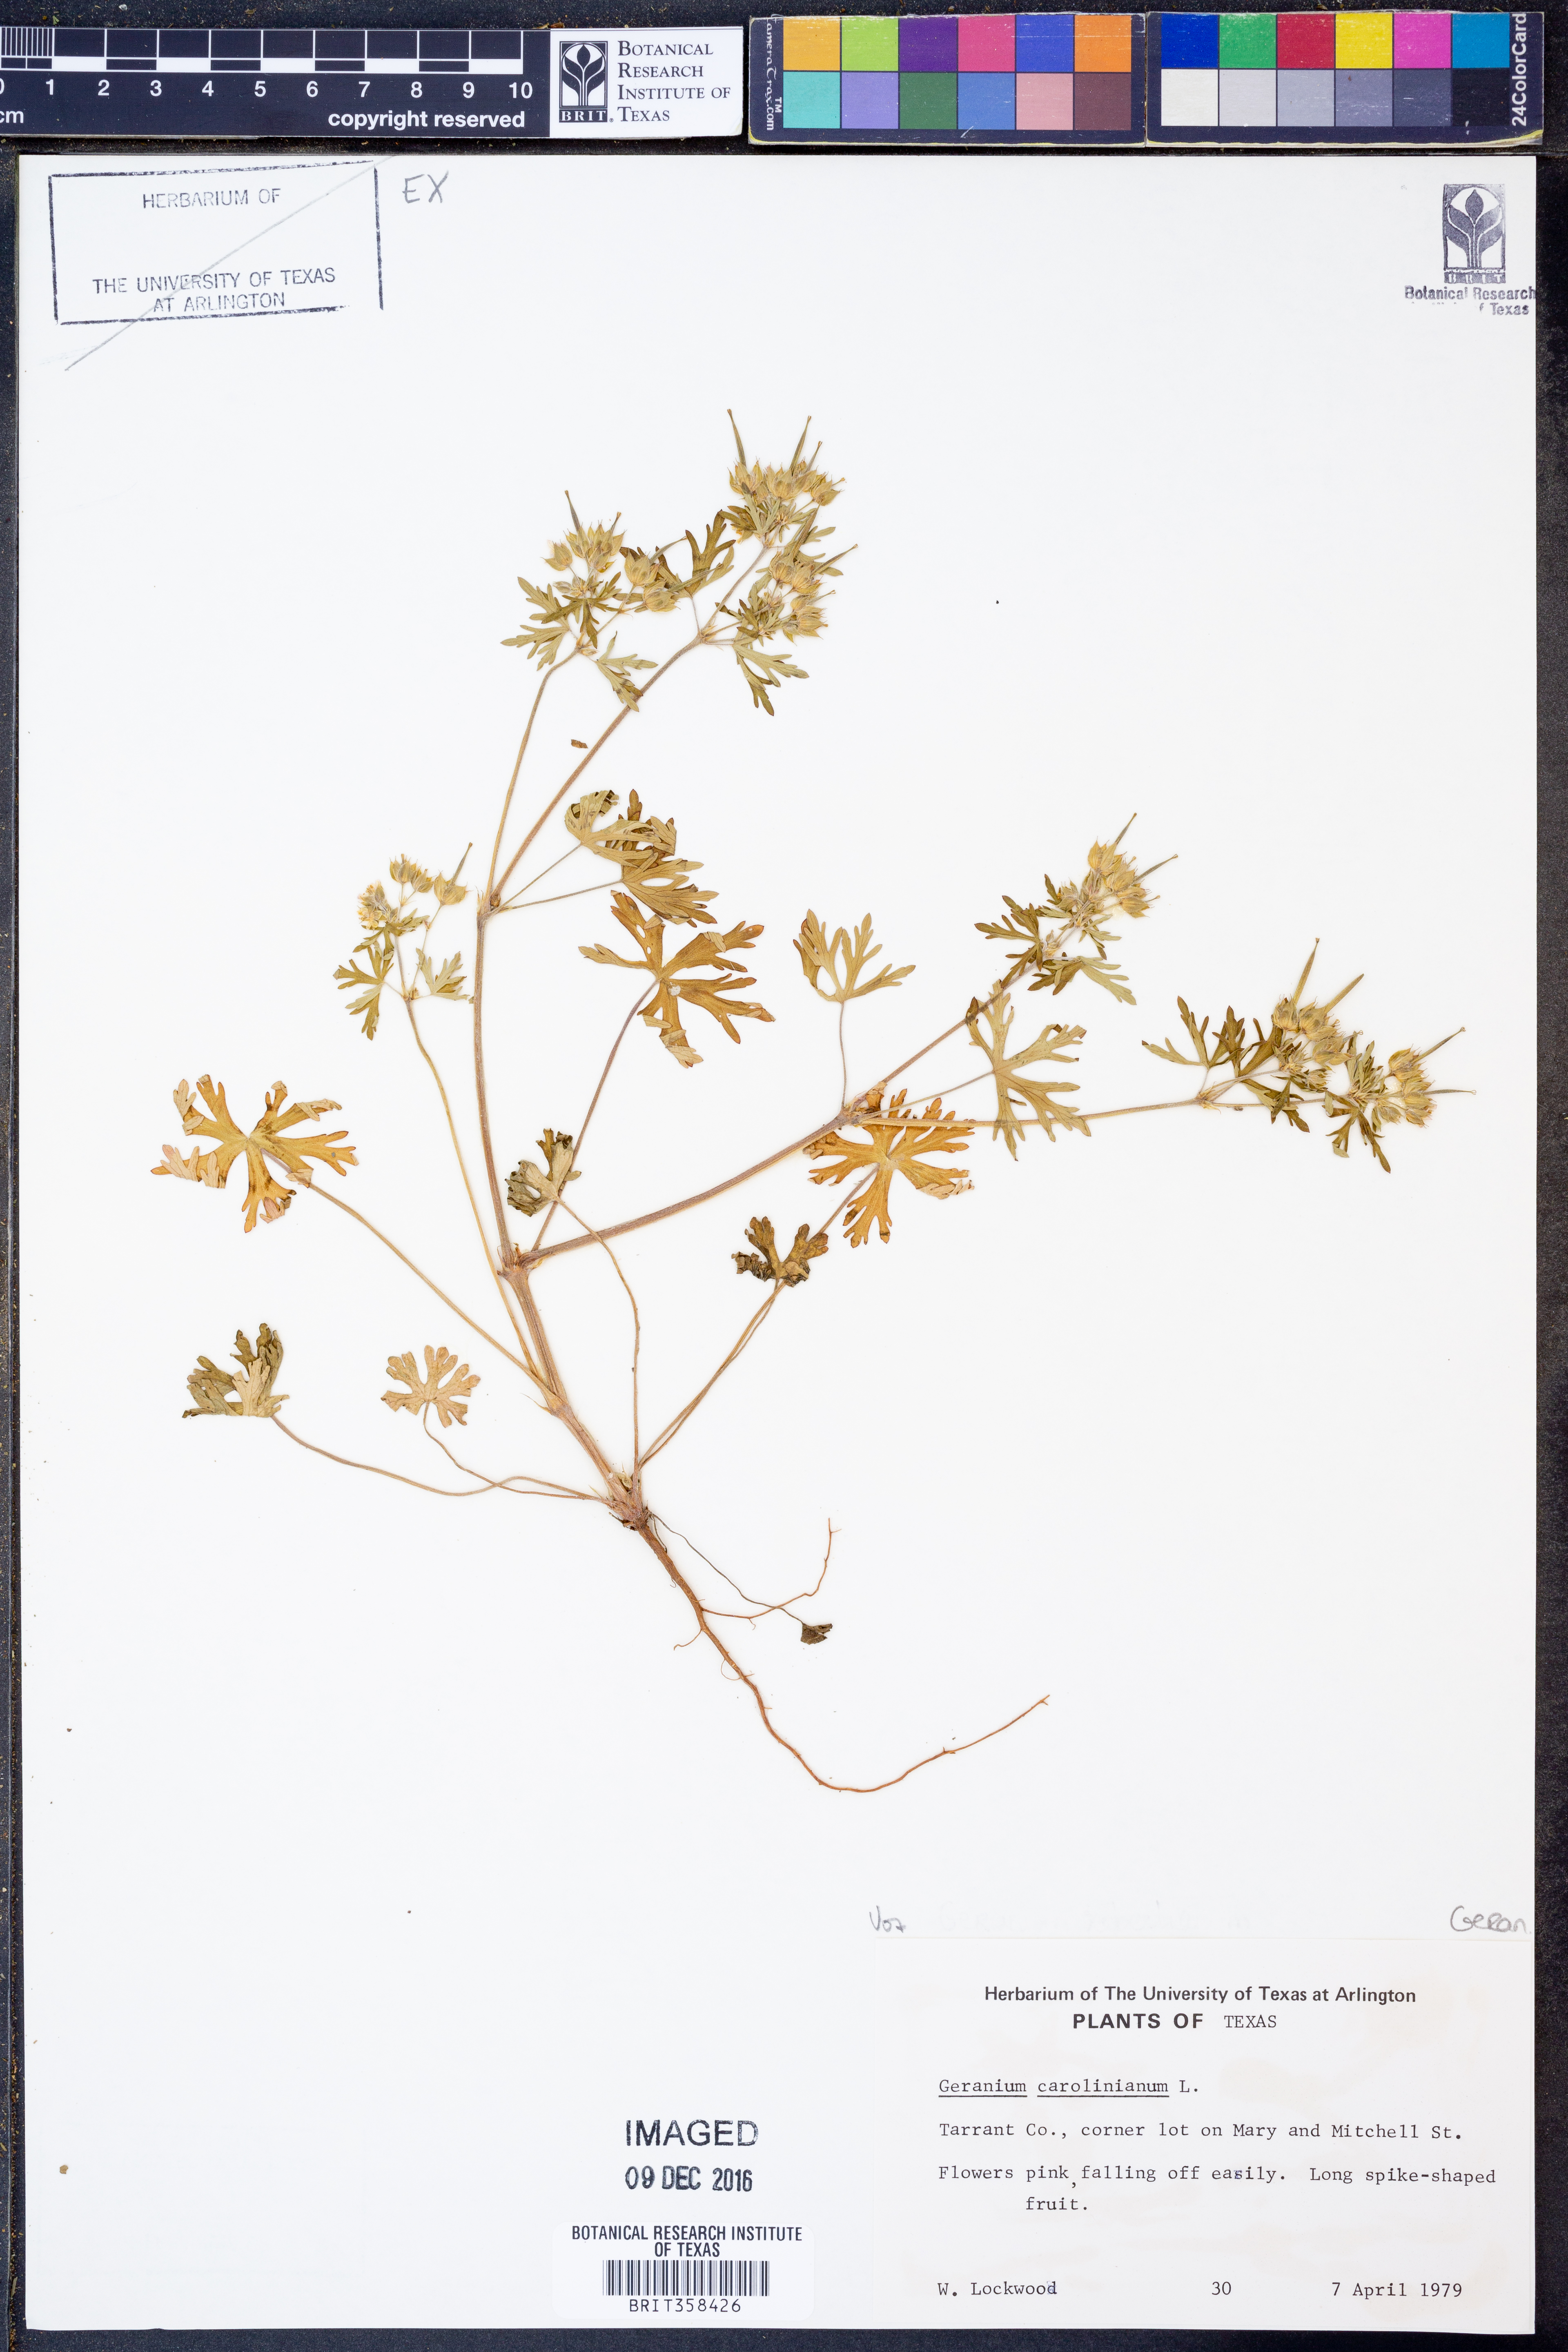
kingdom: Plantae
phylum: Tracheophyta
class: Magnoliopsida
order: Geraniales
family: Geraniaceae
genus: Geranium
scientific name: Geranium carolinianum
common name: Carolina crane's-bill
